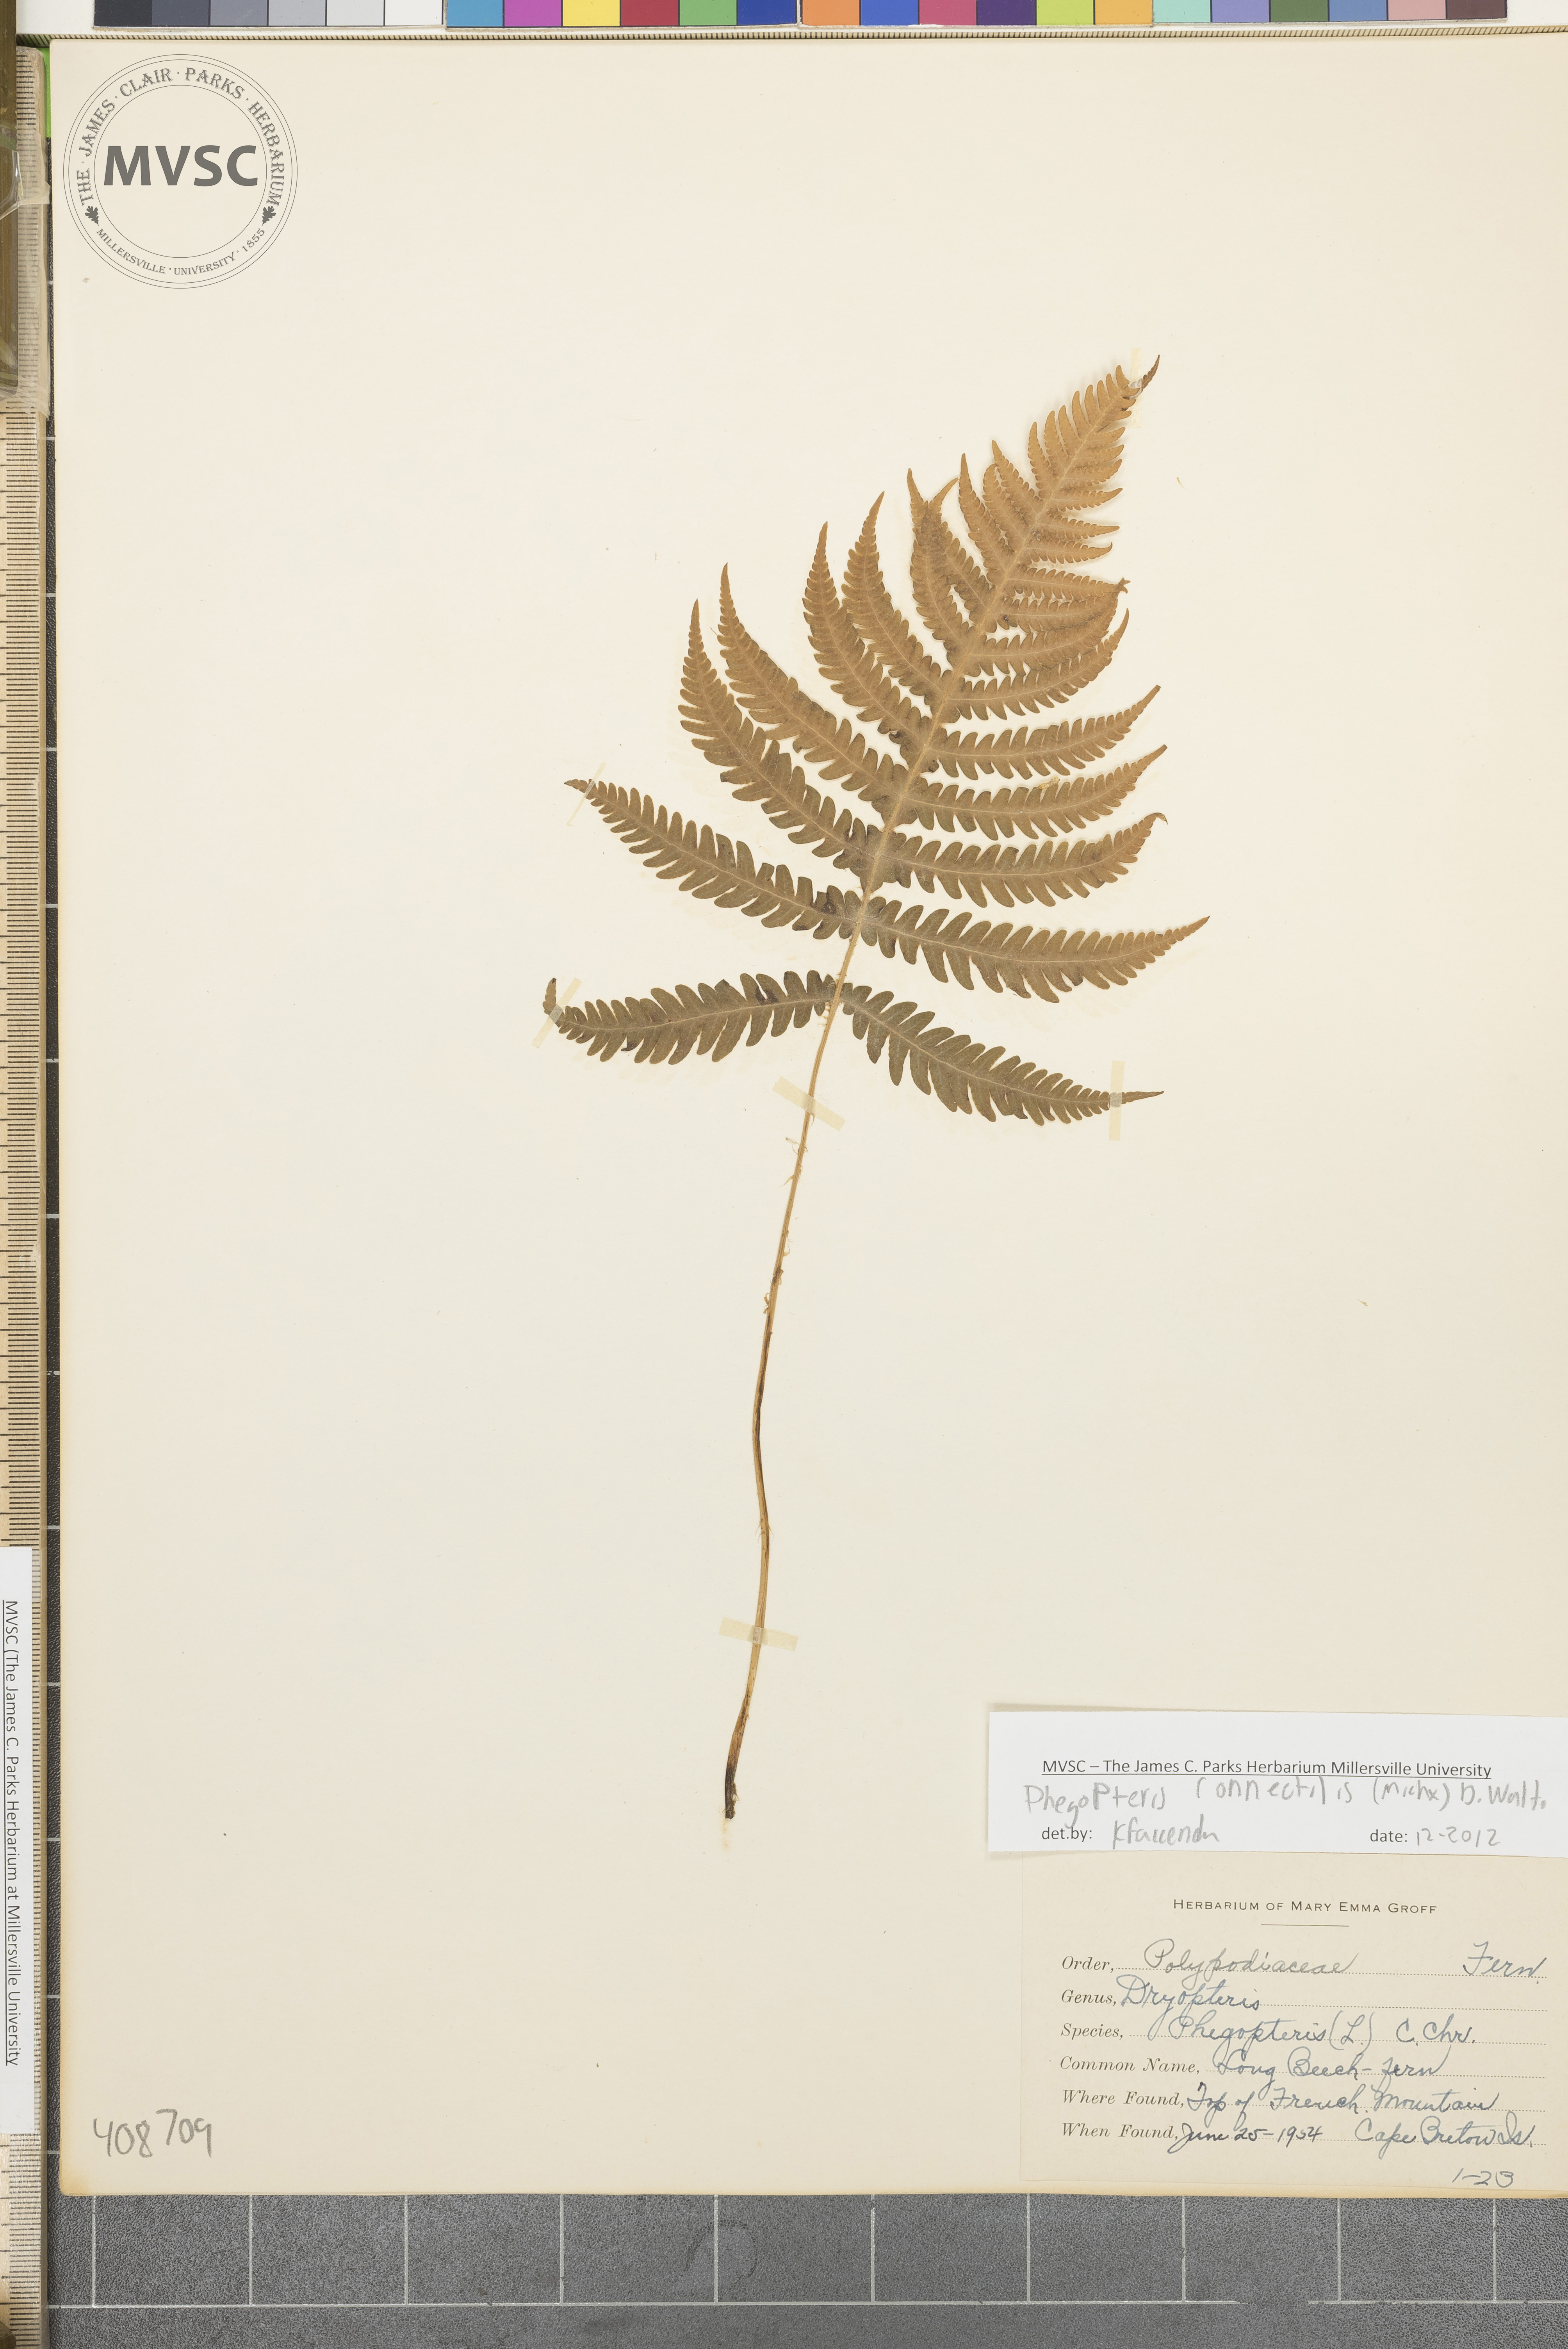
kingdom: Plantae
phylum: Tracheophyta
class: Polypodiopsida
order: Polypodiales
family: Thelypteridaceae
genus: Phegopteris
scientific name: Phegopteris connectilis
